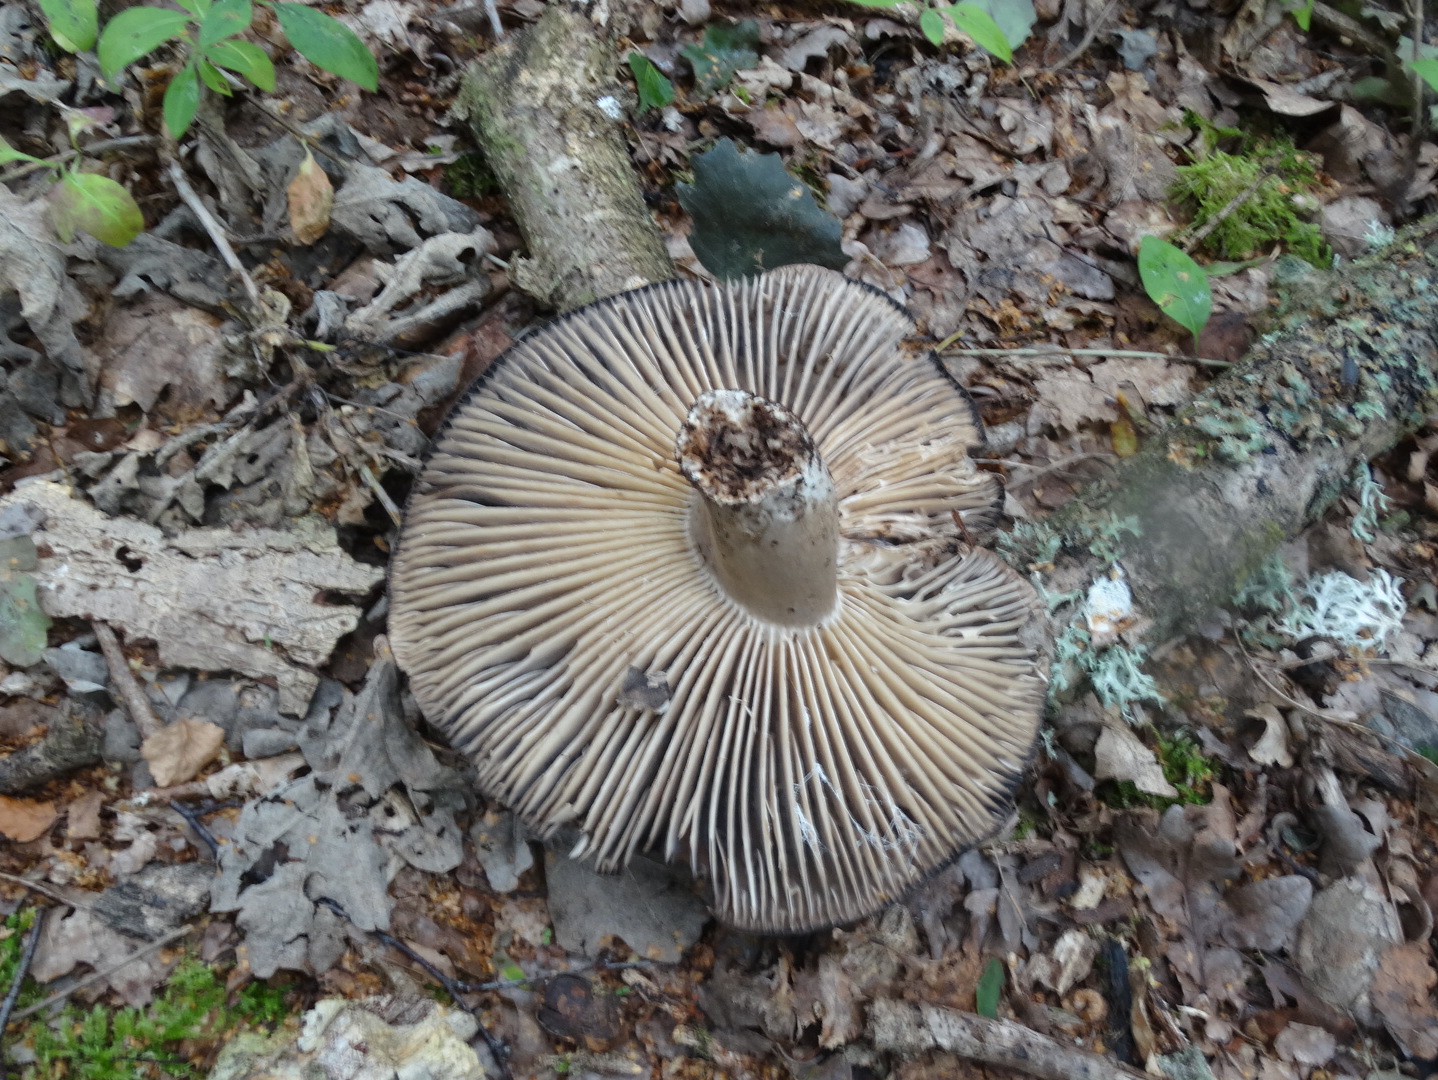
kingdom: Fungi
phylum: Basidiomycota
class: Agaricomycetes
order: Russulales
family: Russulaceae
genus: Russula
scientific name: Russula adusta
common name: sværtende skørhat
